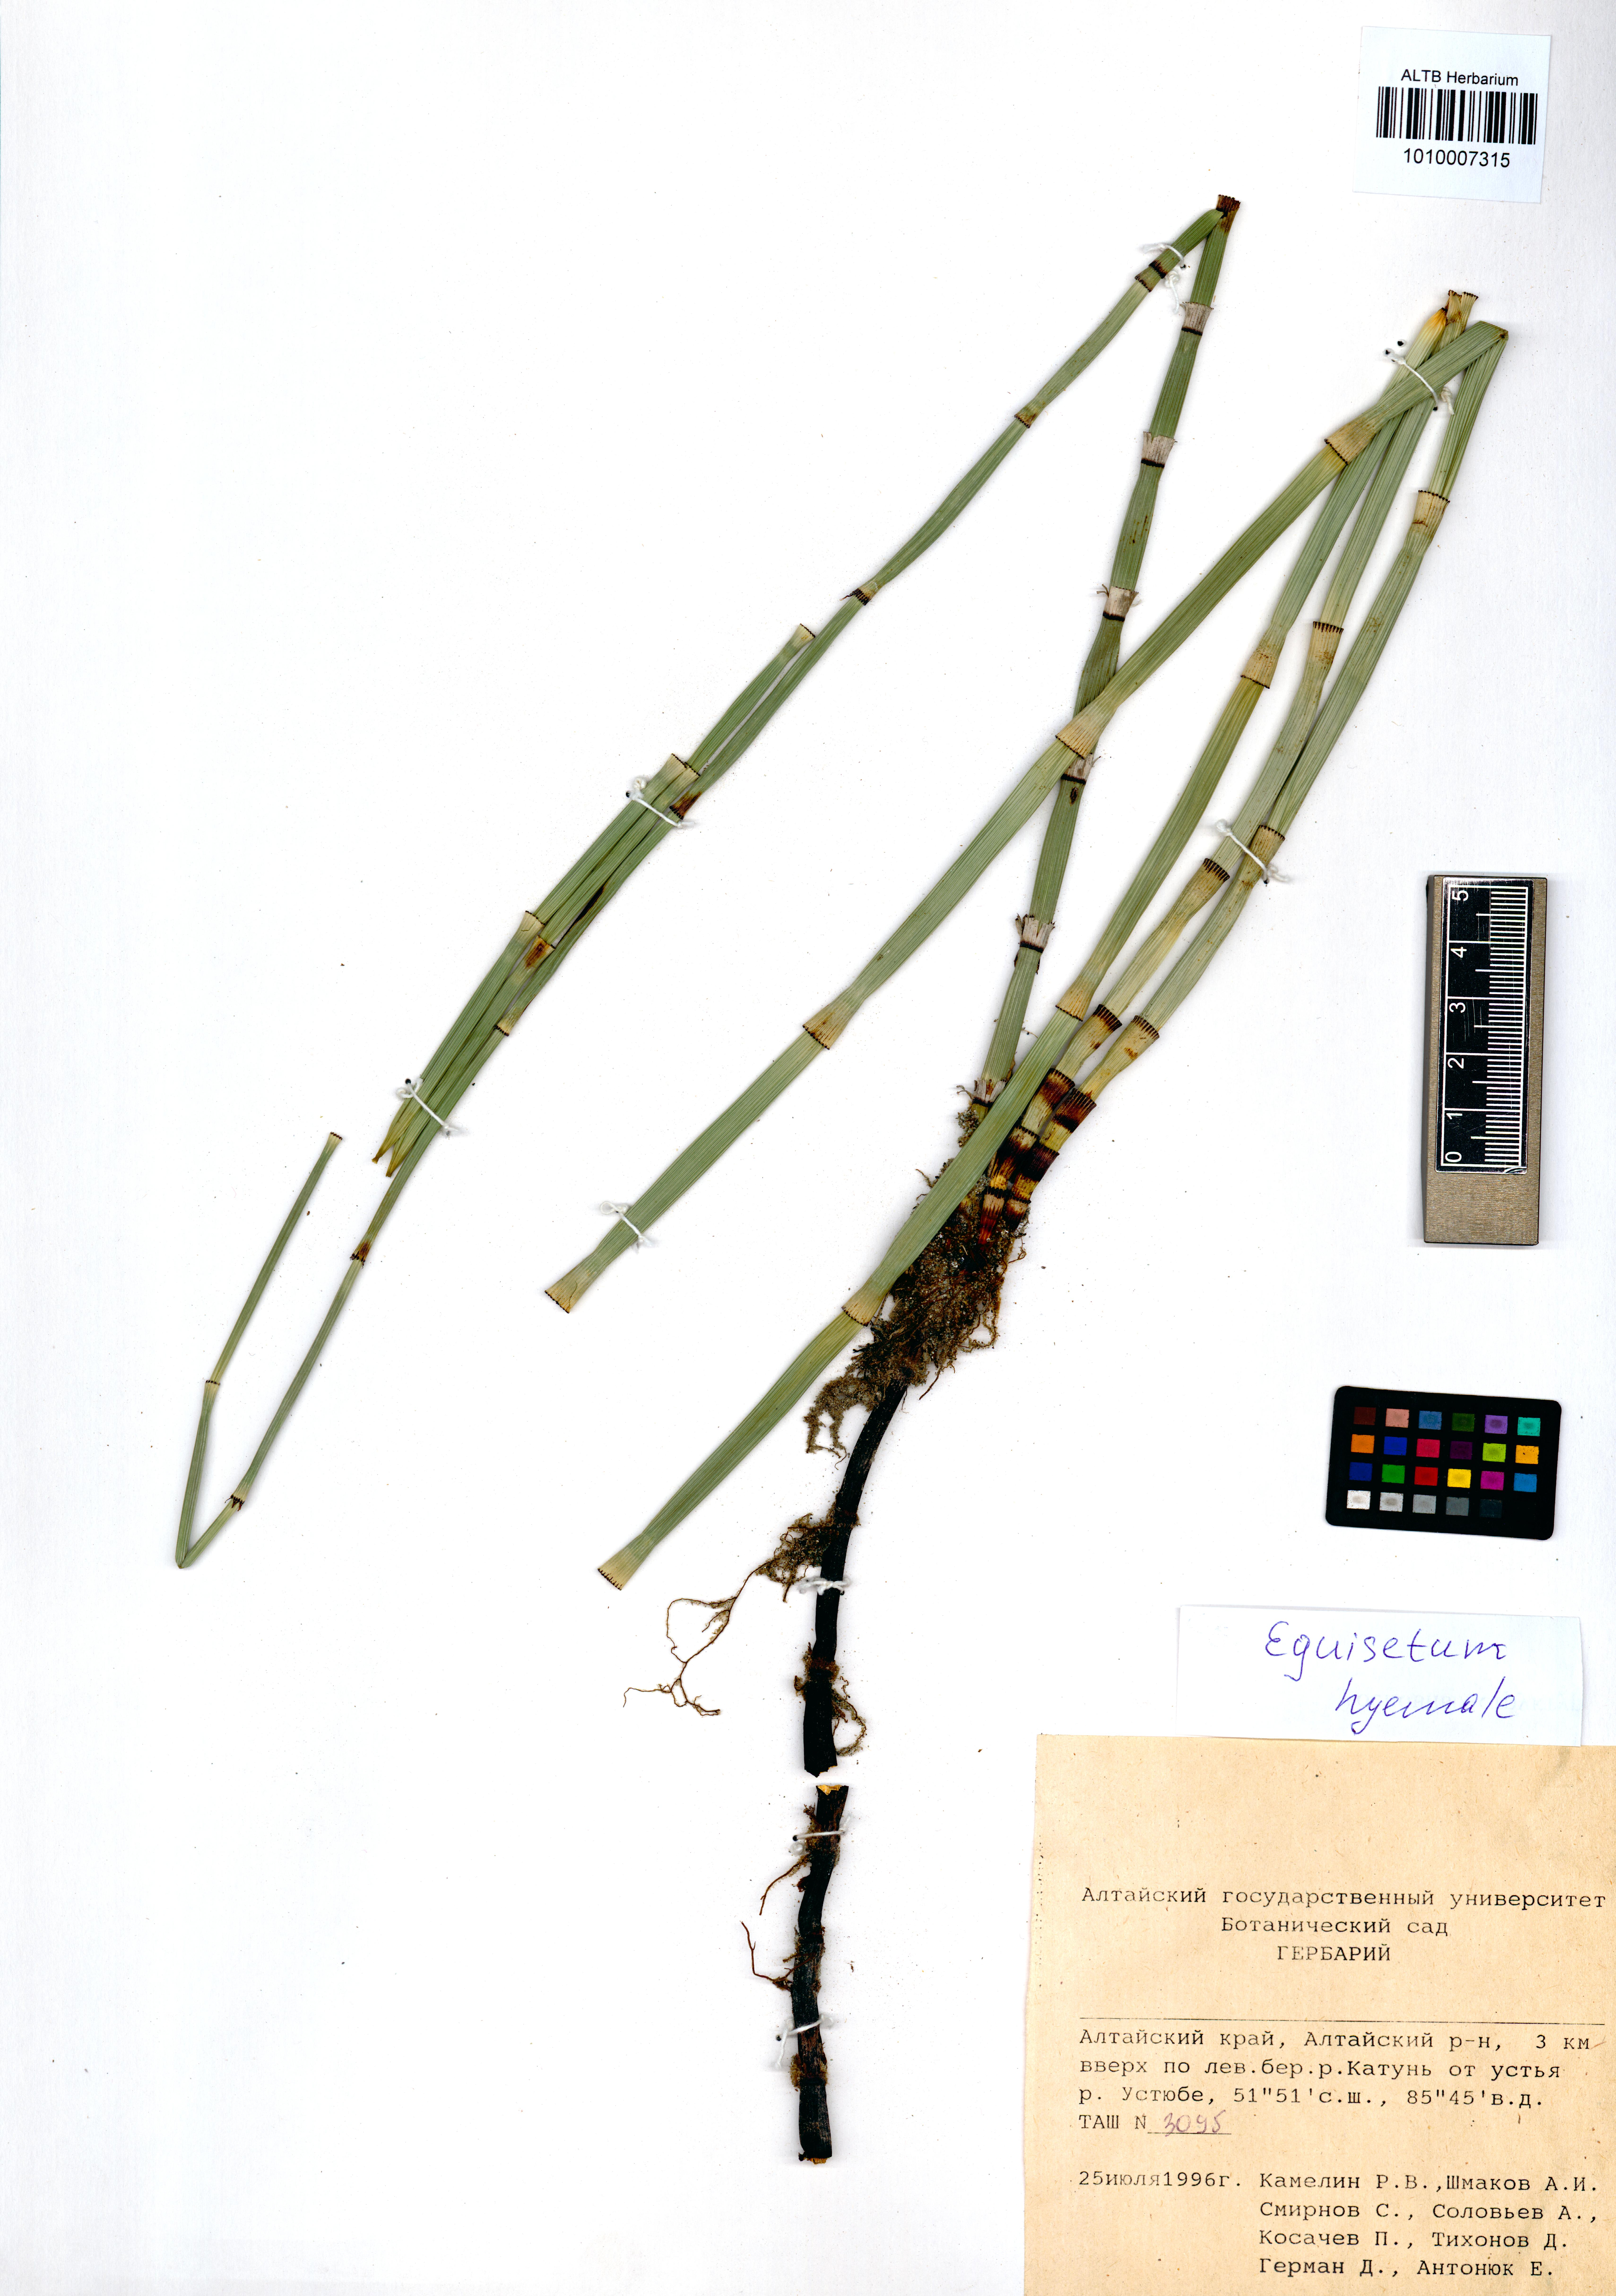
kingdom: Plantae
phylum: Tracheophyta
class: Polypodiopsida
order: Equisetales
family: Equisetaceae
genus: Equisetum
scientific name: Equisetum hyemale
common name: Rough horsetail
